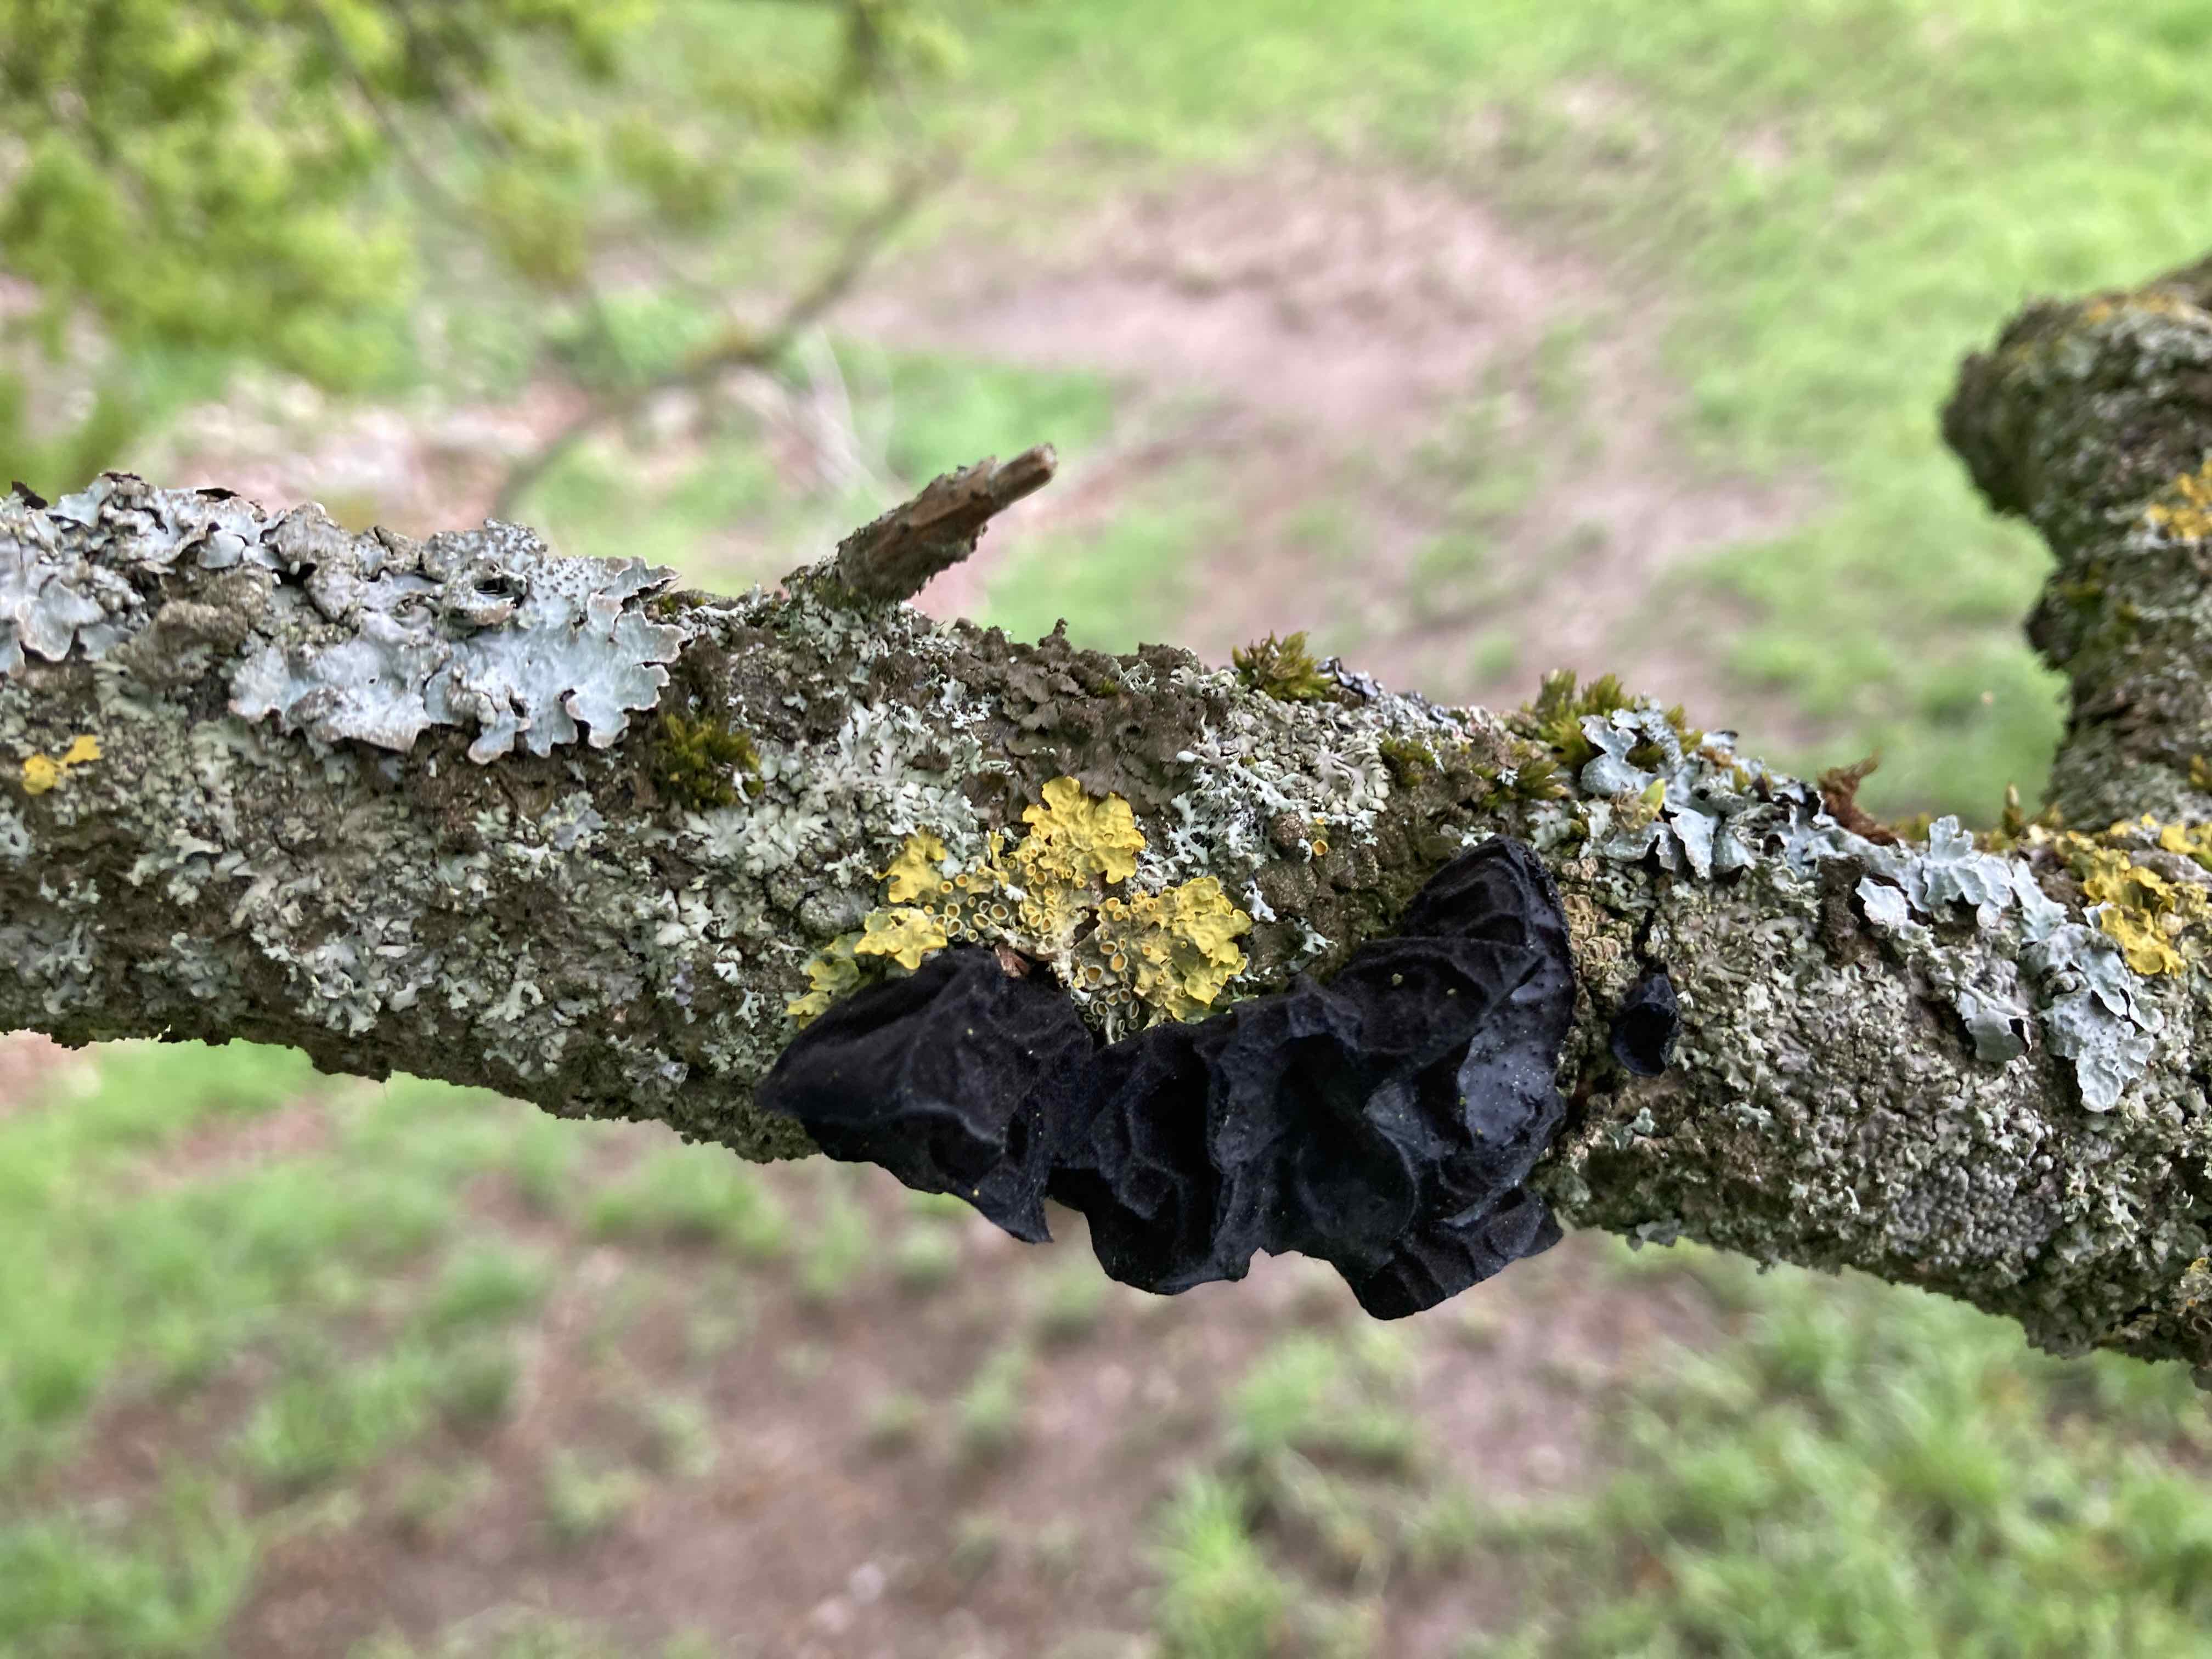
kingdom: Fungi
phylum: Basidiomycota
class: Agaricomycetes
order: Auriculariales
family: Auriculariaceae
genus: Exidia
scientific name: Exidia glandulosa
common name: ege-bævretop
